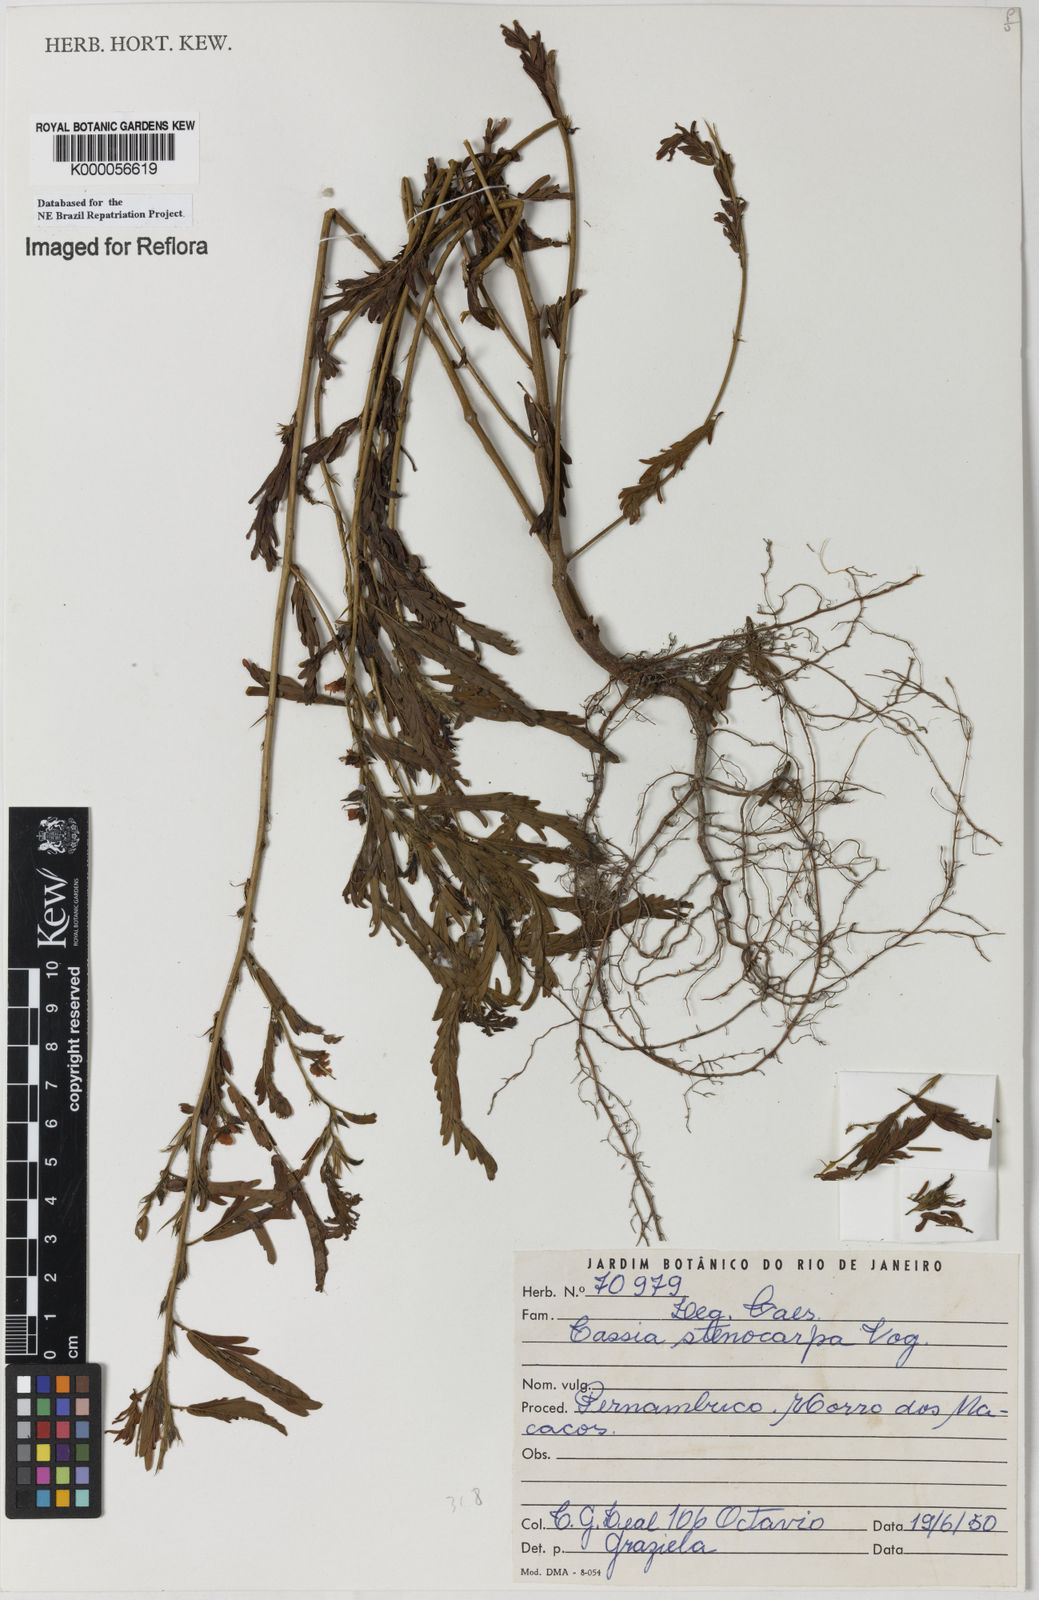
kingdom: Plantae
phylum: Tracheophyta
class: Magnoliopsida
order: Fabales
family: Fabaceae
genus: Chamaecrista
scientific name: Chamaecrista nictitans
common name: Sensitive cassia
